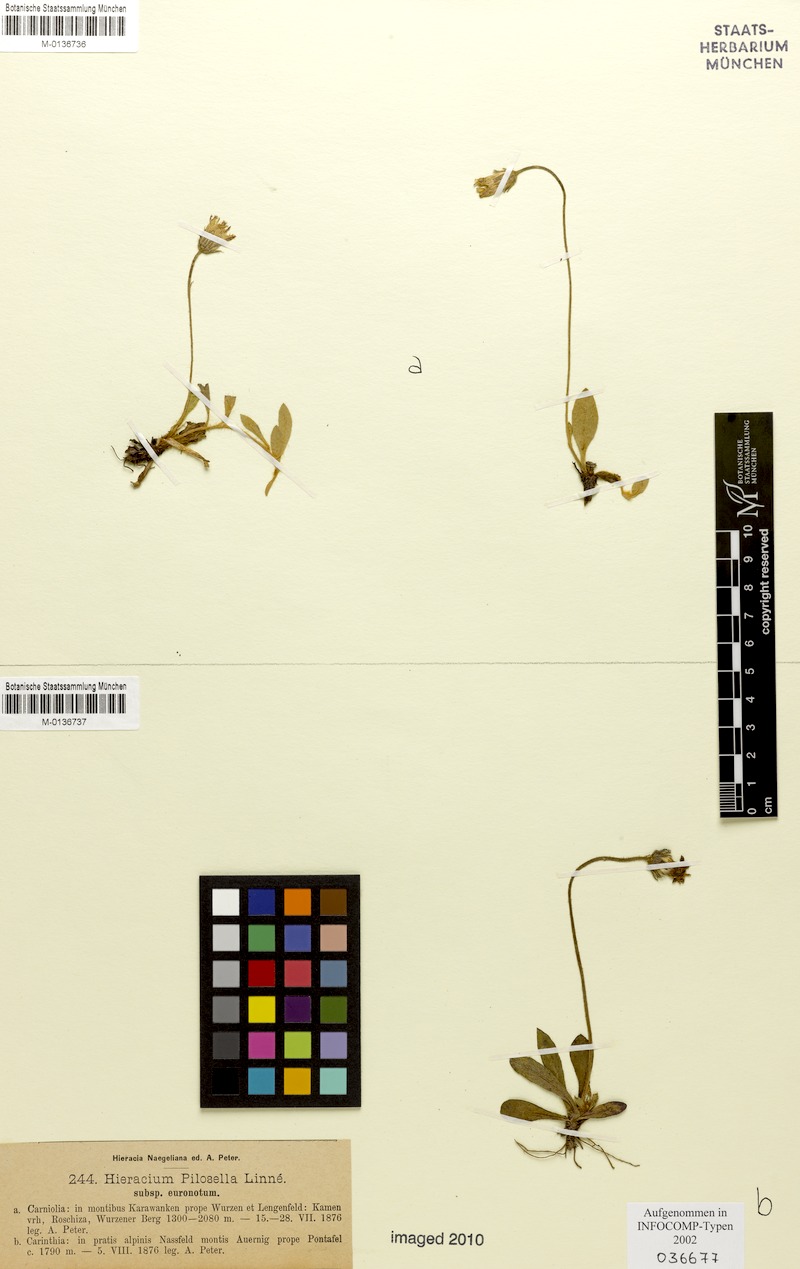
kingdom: Plantae
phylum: Tracheophyta
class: Magnoliopsida
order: Asterales
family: Asteraceae
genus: Pilosella
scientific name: Pilosella officinarum
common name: Mouse-ear hawkweed
